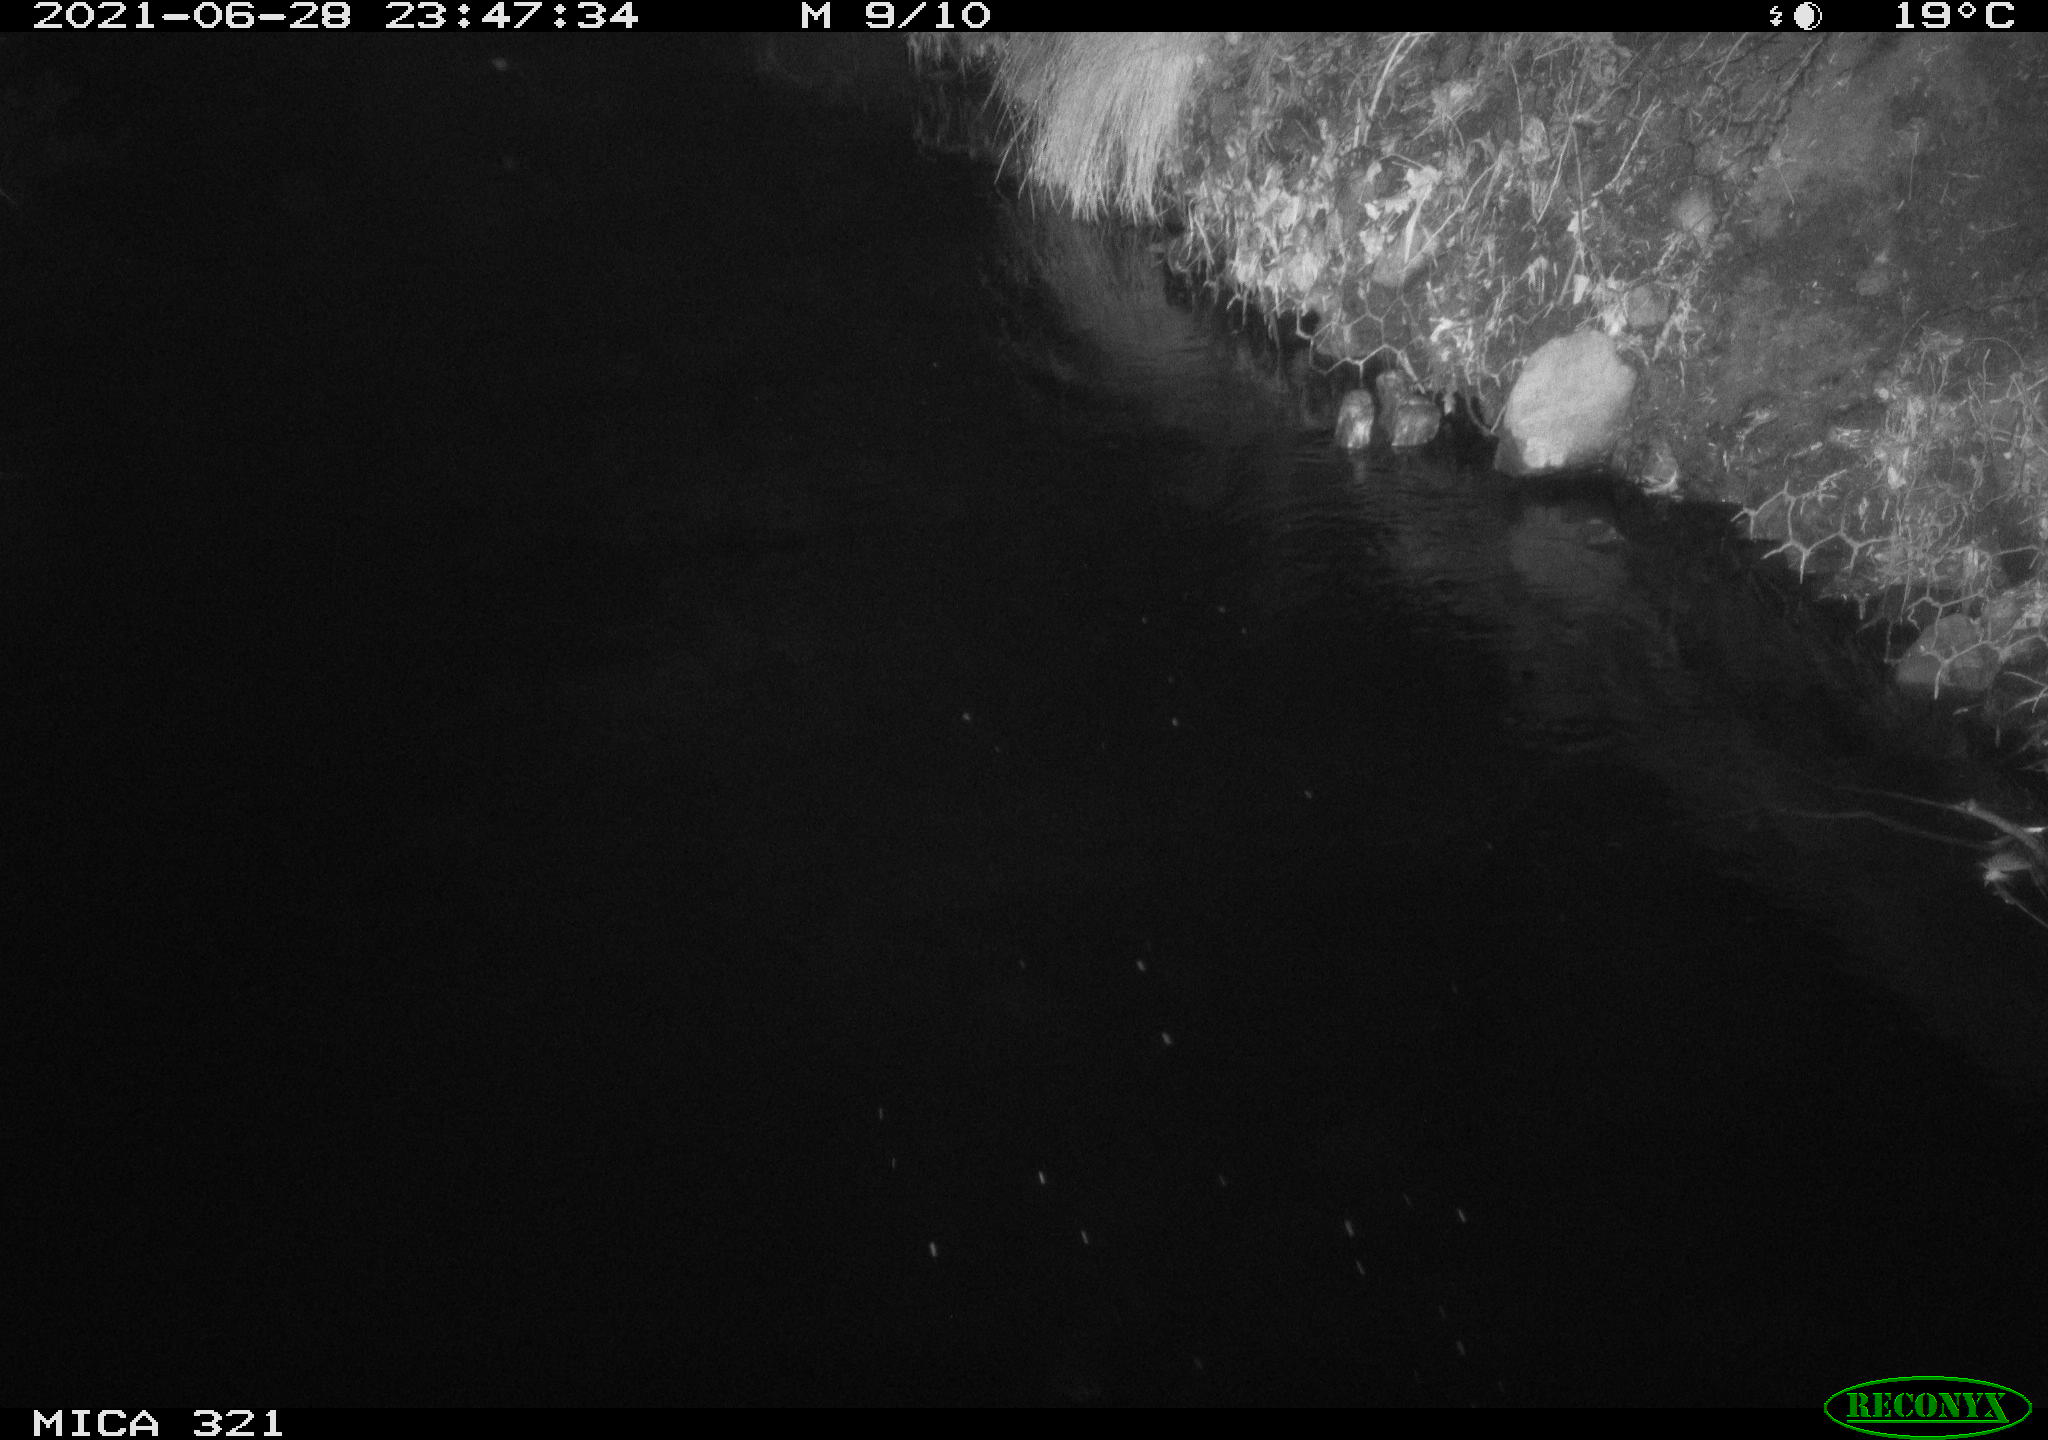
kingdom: Animalia
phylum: Chordata
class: Aves
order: Anseriformes
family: Anatidae
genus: Anas
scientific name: Anas platyrhynchos
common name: Mallard
